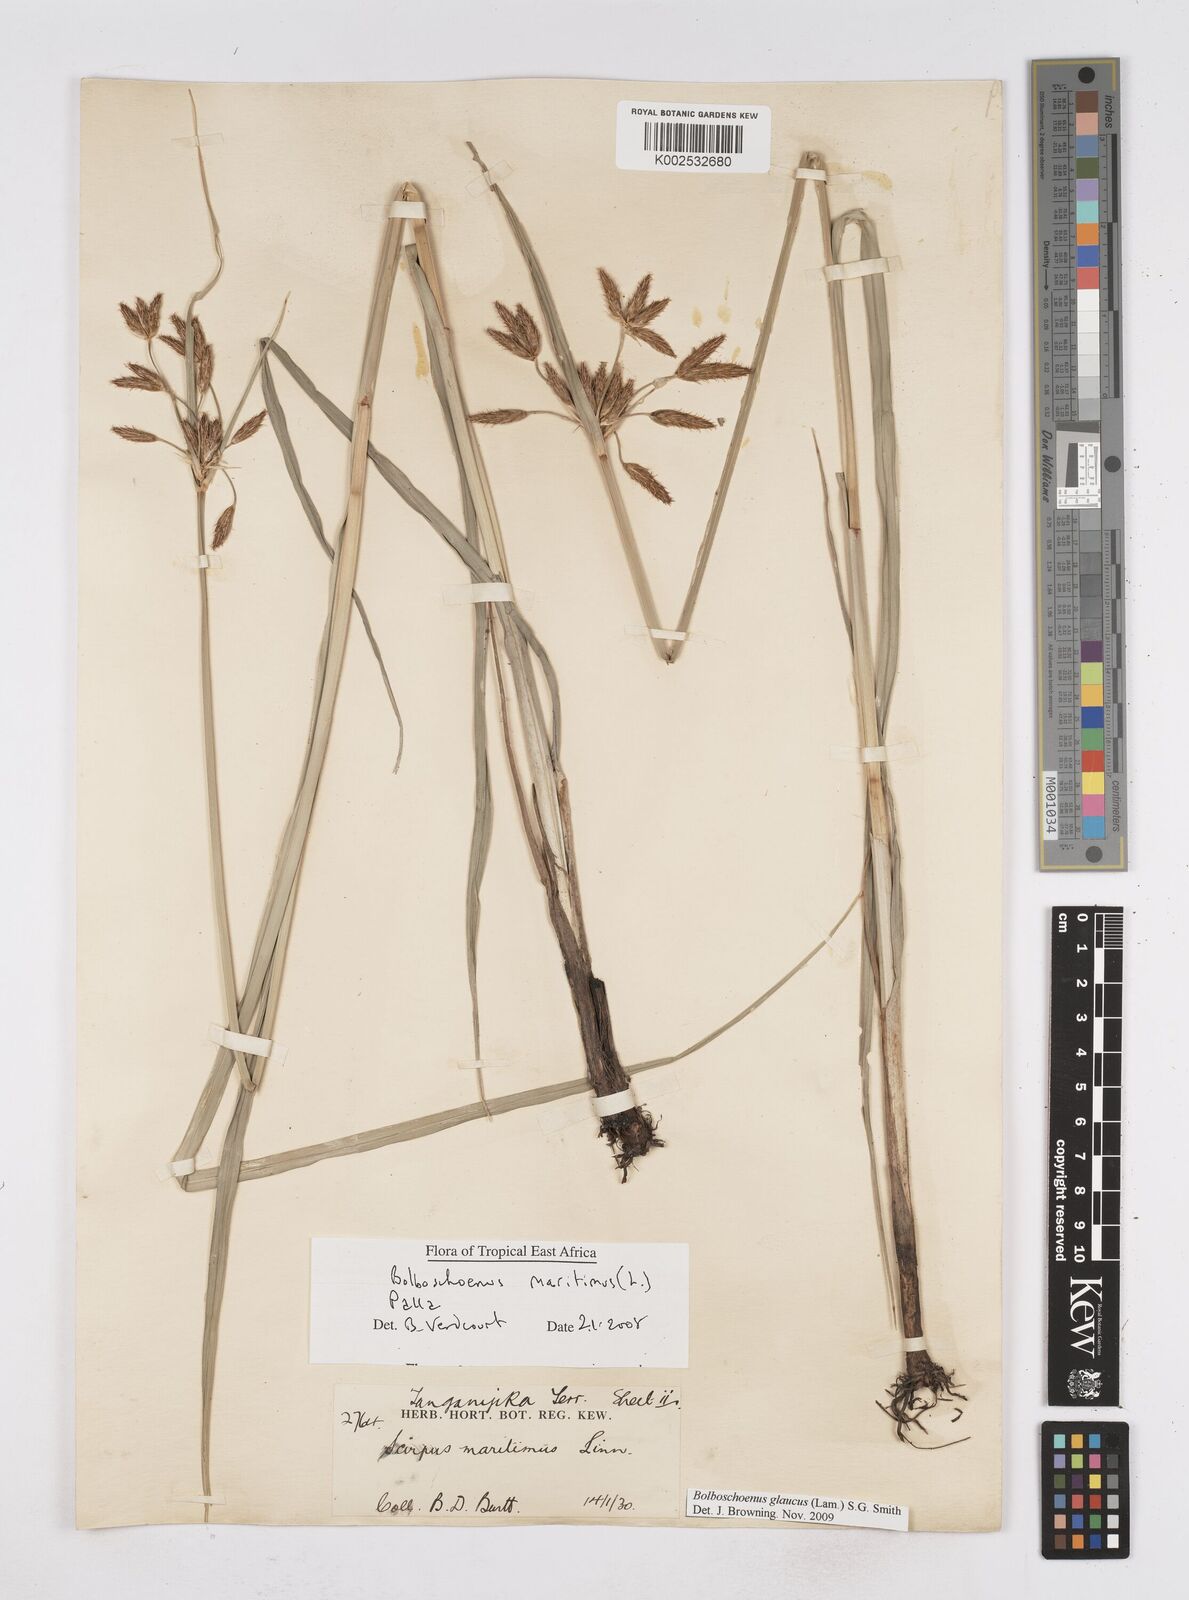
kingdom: Plantae
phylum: Tracheophyta
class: Liliopsida
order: Poales
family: Cyperaceae
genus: Bolboschoenus
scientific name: Bolboschoenus glaucus
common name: Tuberous bulrush
